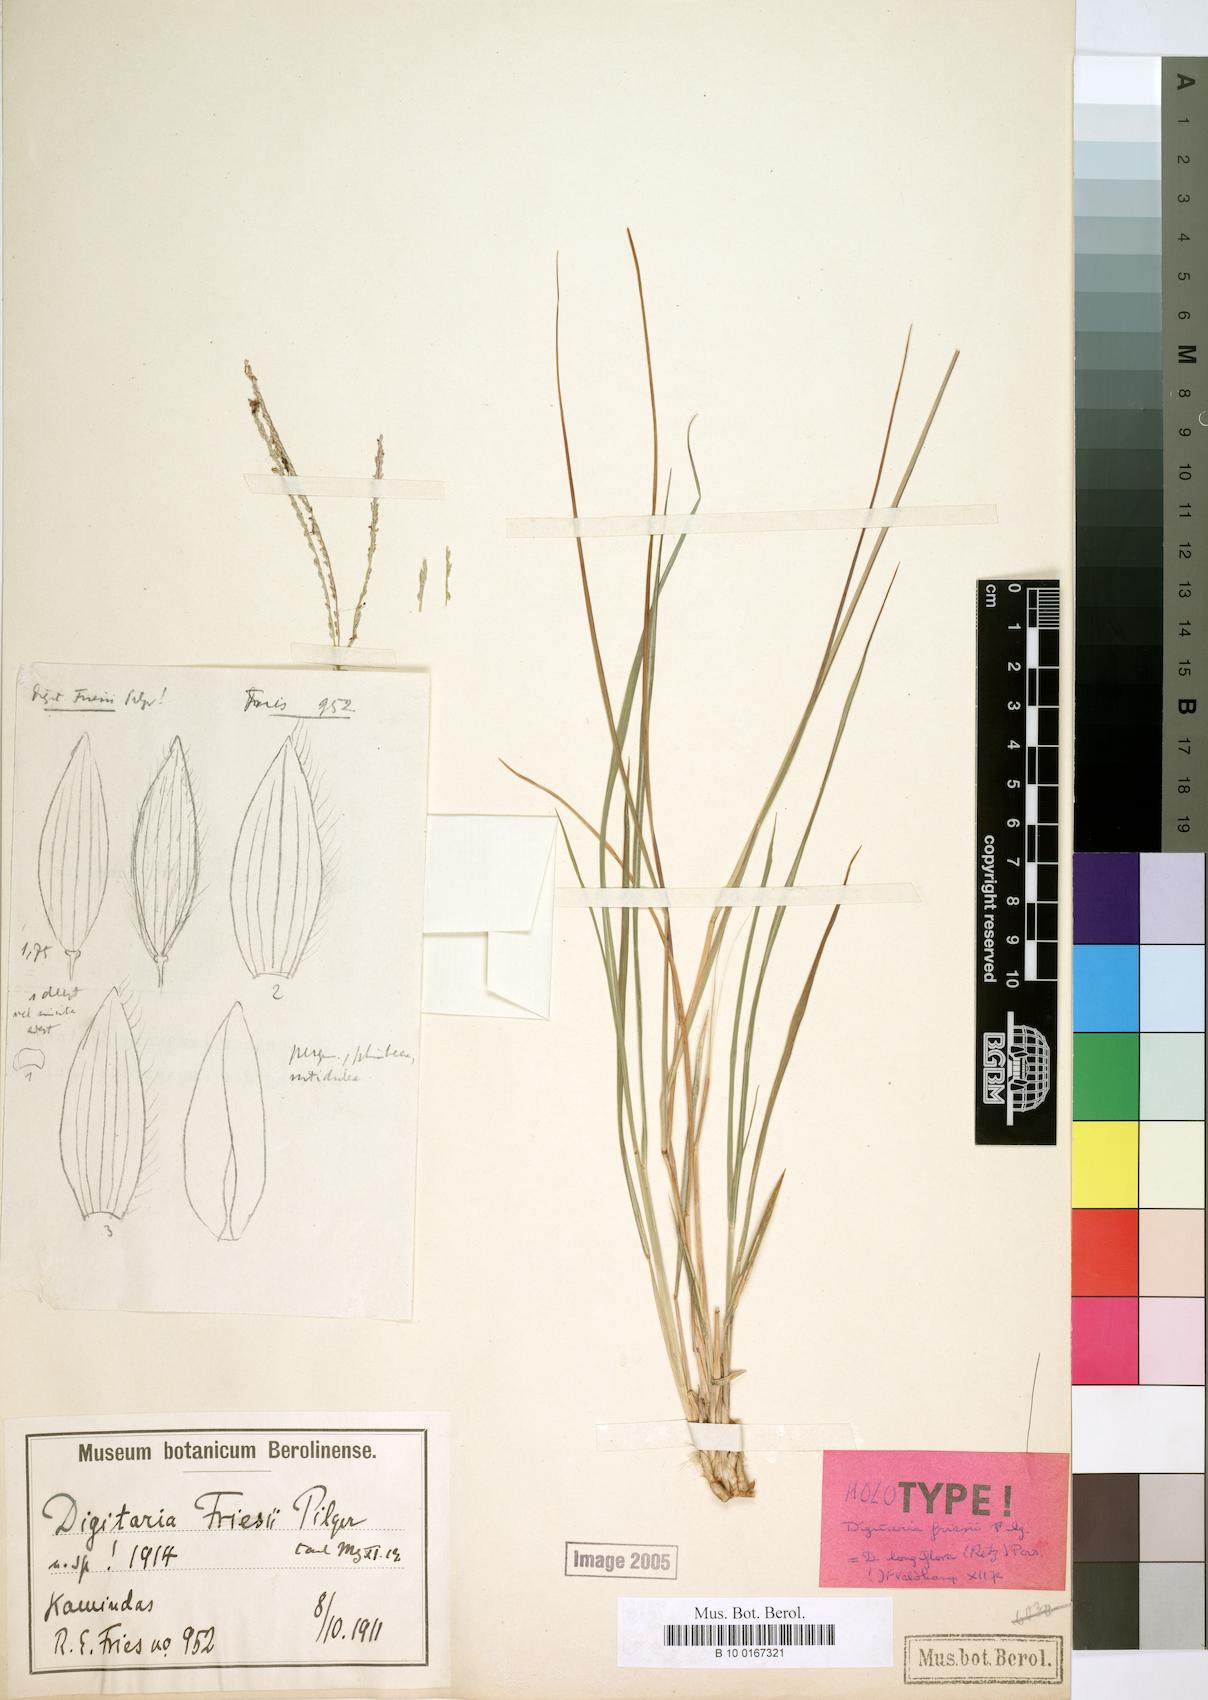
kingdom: Plantae
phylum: Tracheophyta
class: Liliopsida
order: Poales
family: Poaceae
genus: Digitaria
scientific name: Digitaria longiflora
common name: Wire crabgrass
